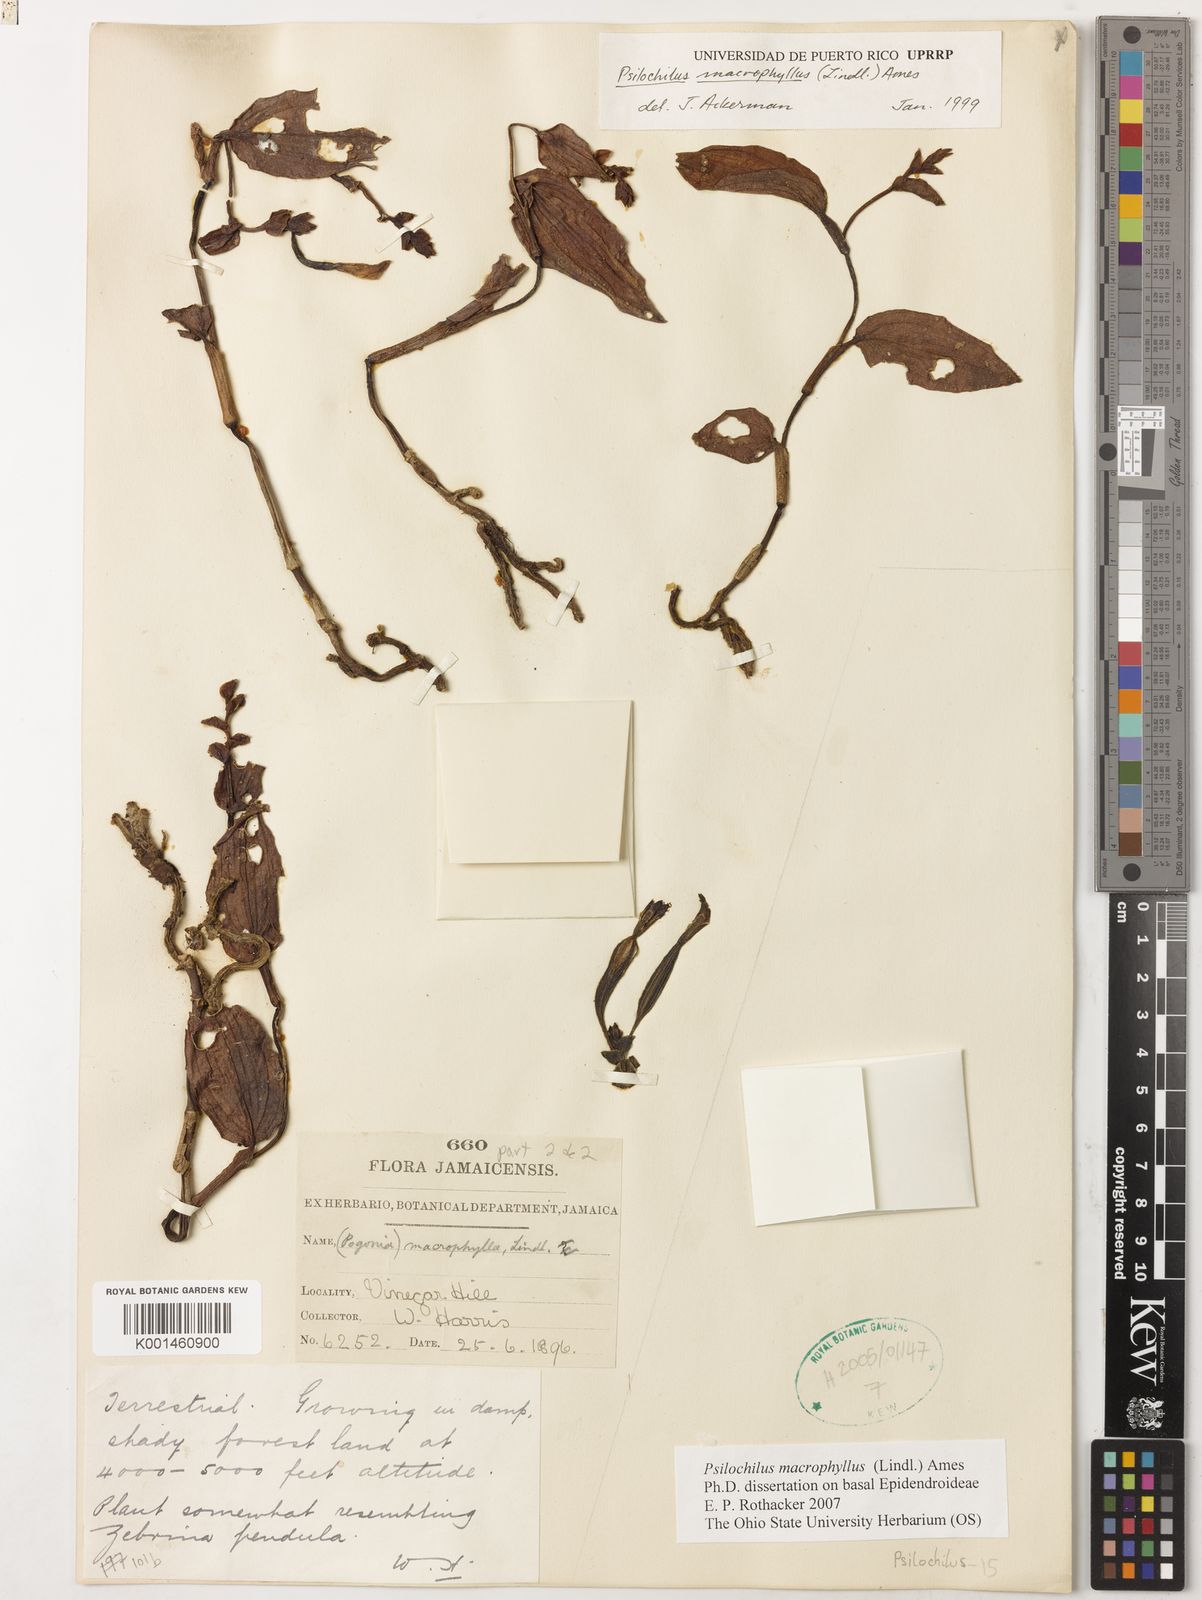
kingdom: Plantae
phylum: Tracheophyta
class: Liliopsida
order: Asparagales
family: Orchidaceae
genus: Psilochilus
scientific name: Psilochilus macrophyllus
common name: Raggedlip orchid
